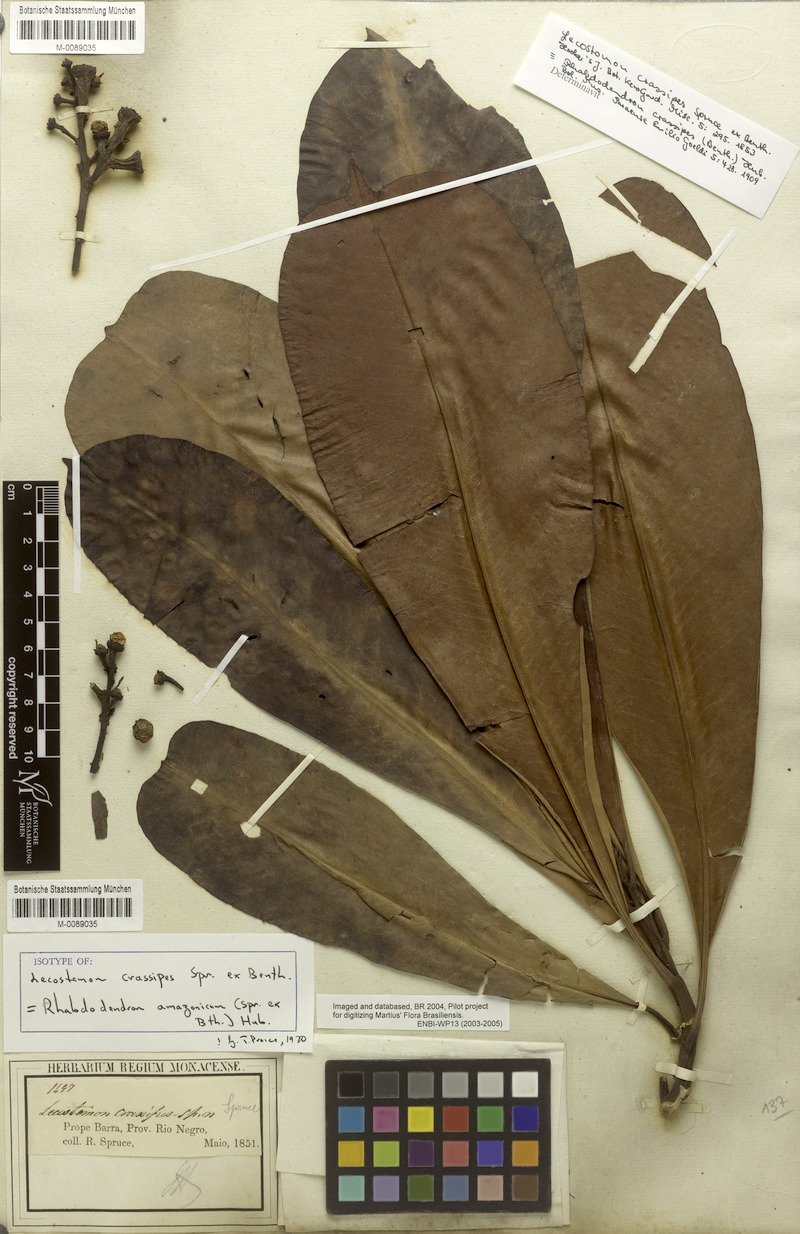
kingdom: Plantae
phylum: Tracheophyta
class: Magnoliopsida
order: Caryophyllales
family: Rhabdodendraceae
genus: Rhabdodendron
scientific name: Rhabdodendron amazonicum
